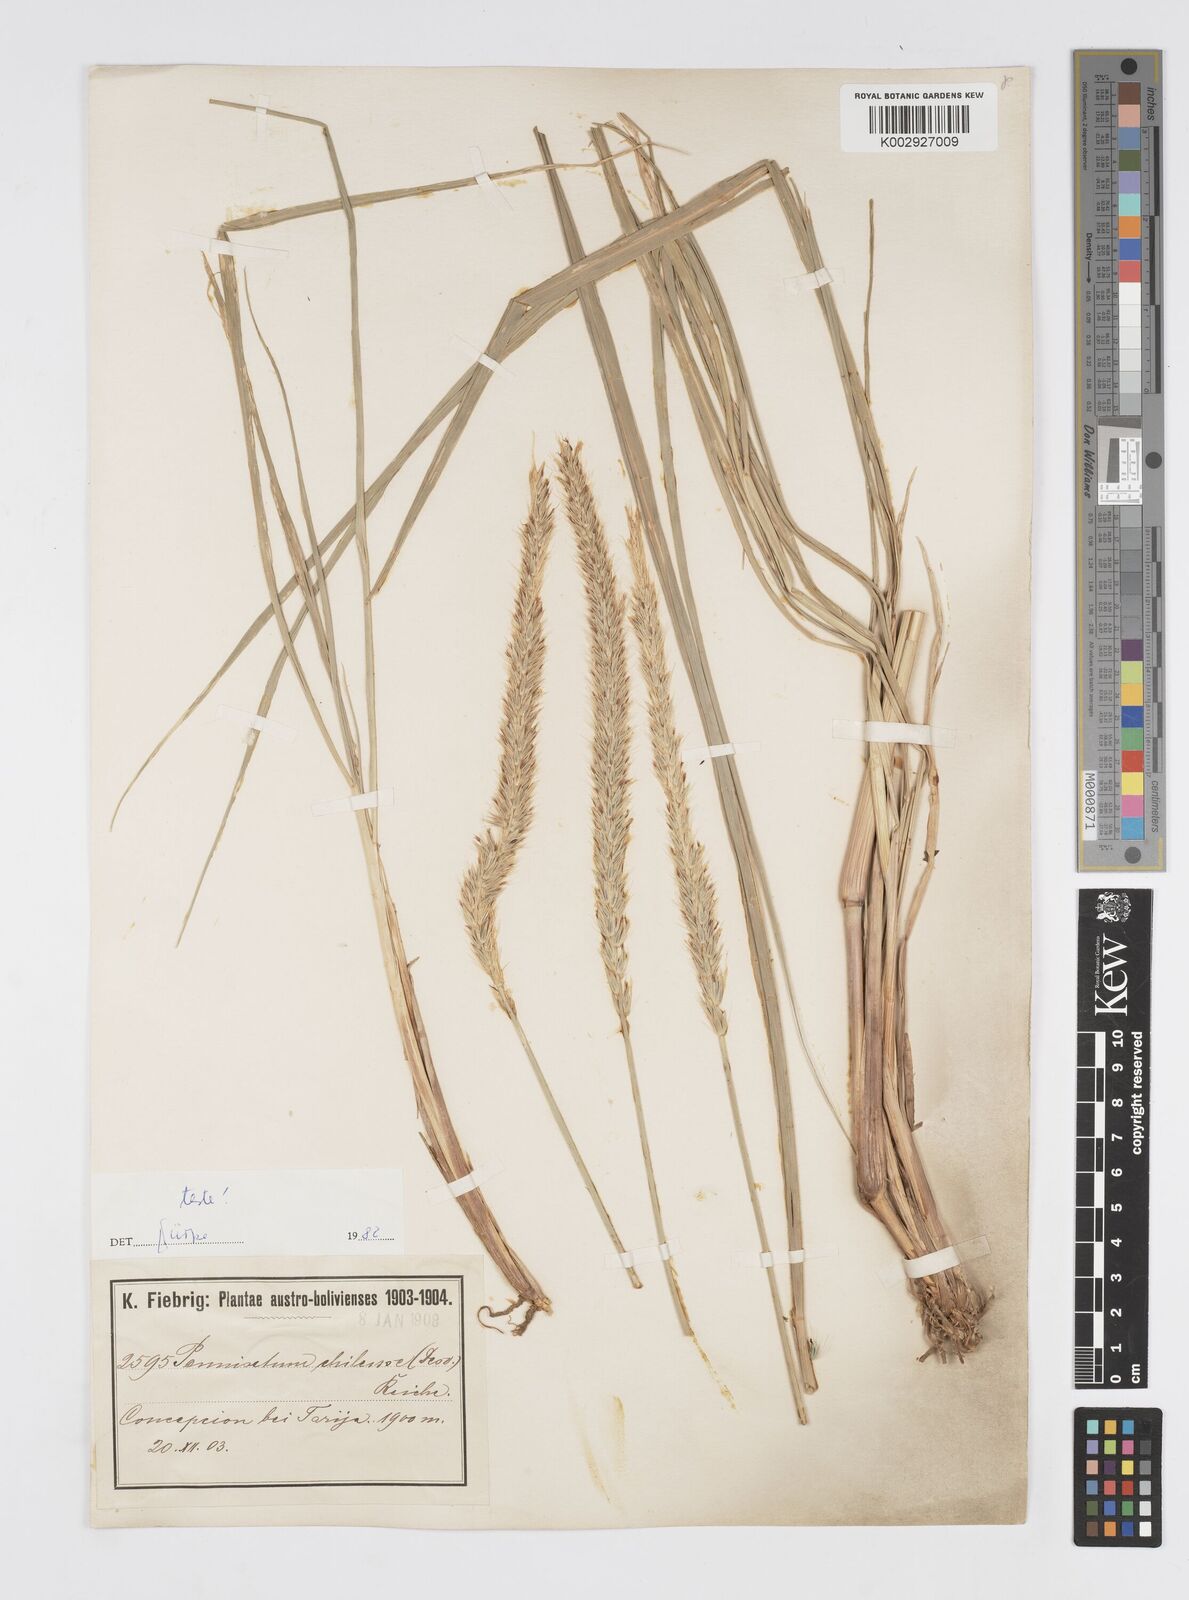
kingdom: Plantae
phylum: Tracheophyta
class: Liliopsida
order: Poales
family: Poaceae
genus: Cenchrus
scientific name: Cenchrus chilensis
